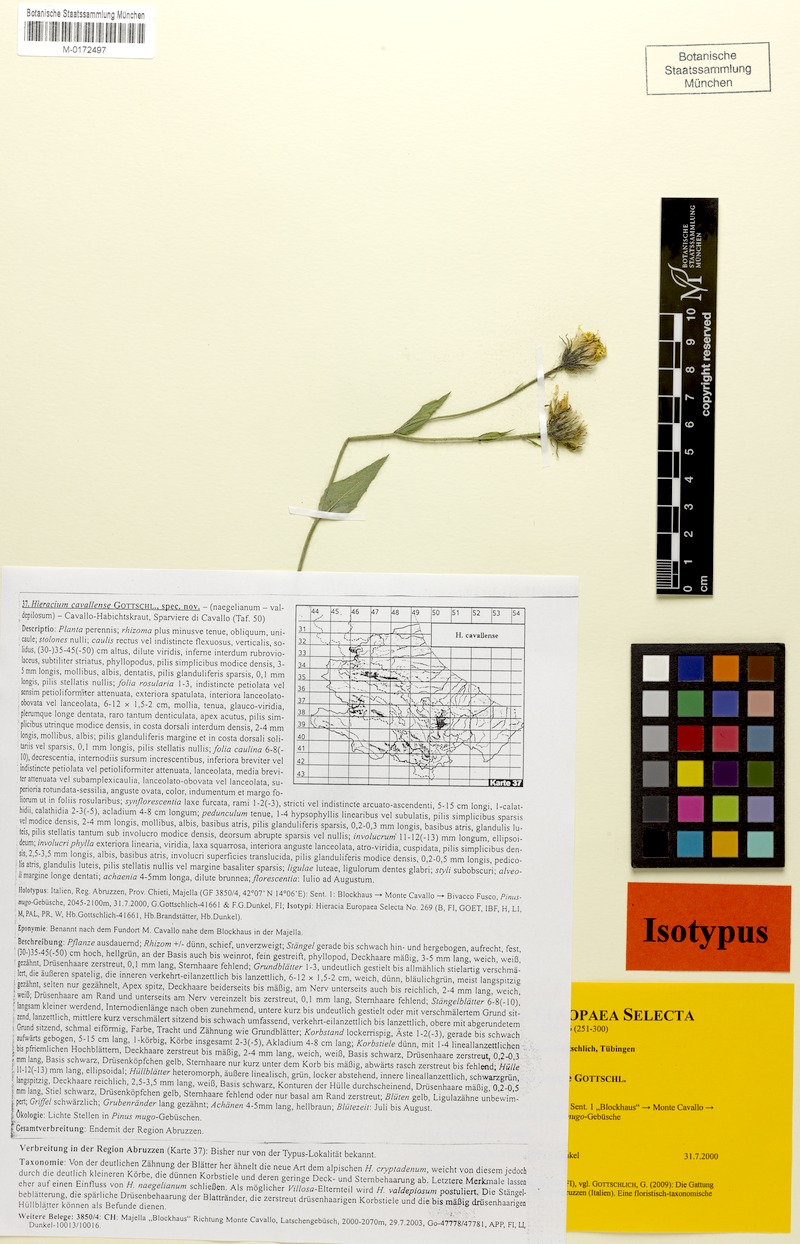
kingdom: Plantae
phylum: Tracheophyta
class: Magnoliopsida
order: Asterales
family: Asteraceae
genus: Hieracium
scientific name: Hieracium cavallense
